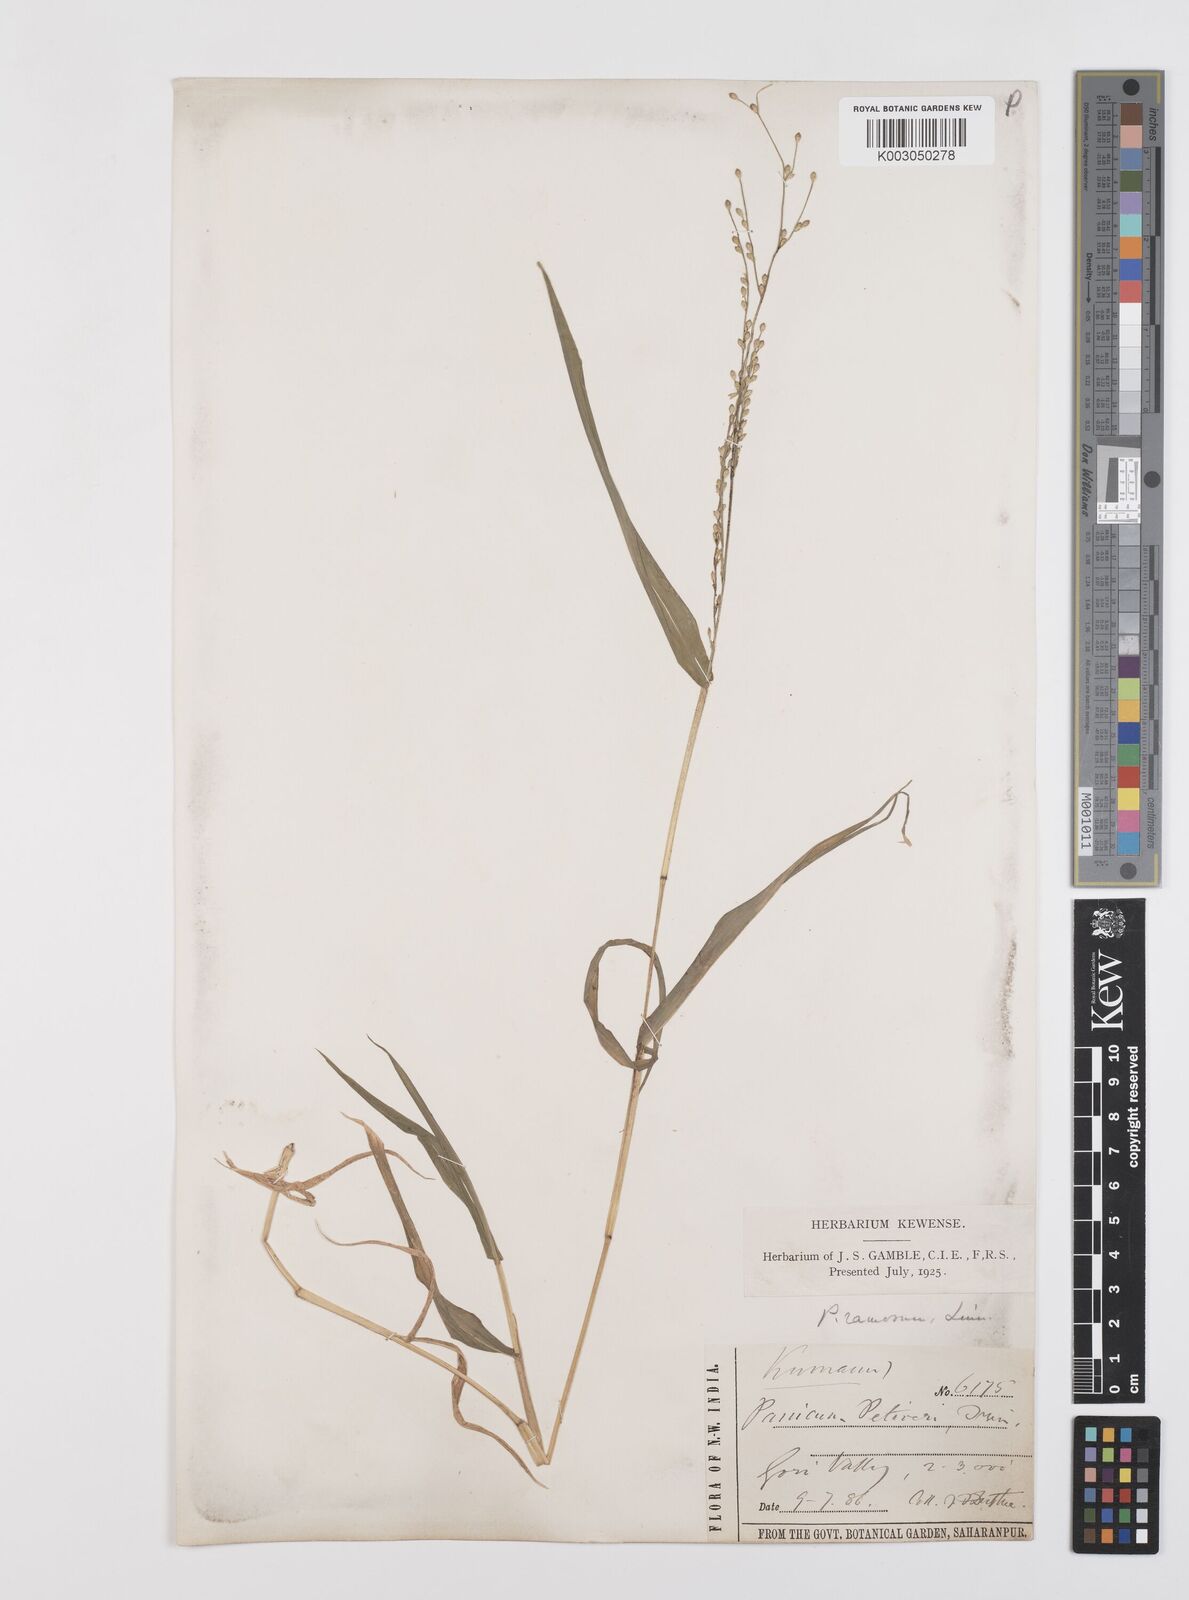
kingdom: Plantae
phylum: Tracheophyta
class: Liliopsida
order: Poales
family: Poaceae
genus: Urochloa
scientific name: Urochloa ramosa
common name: Browntop millet
